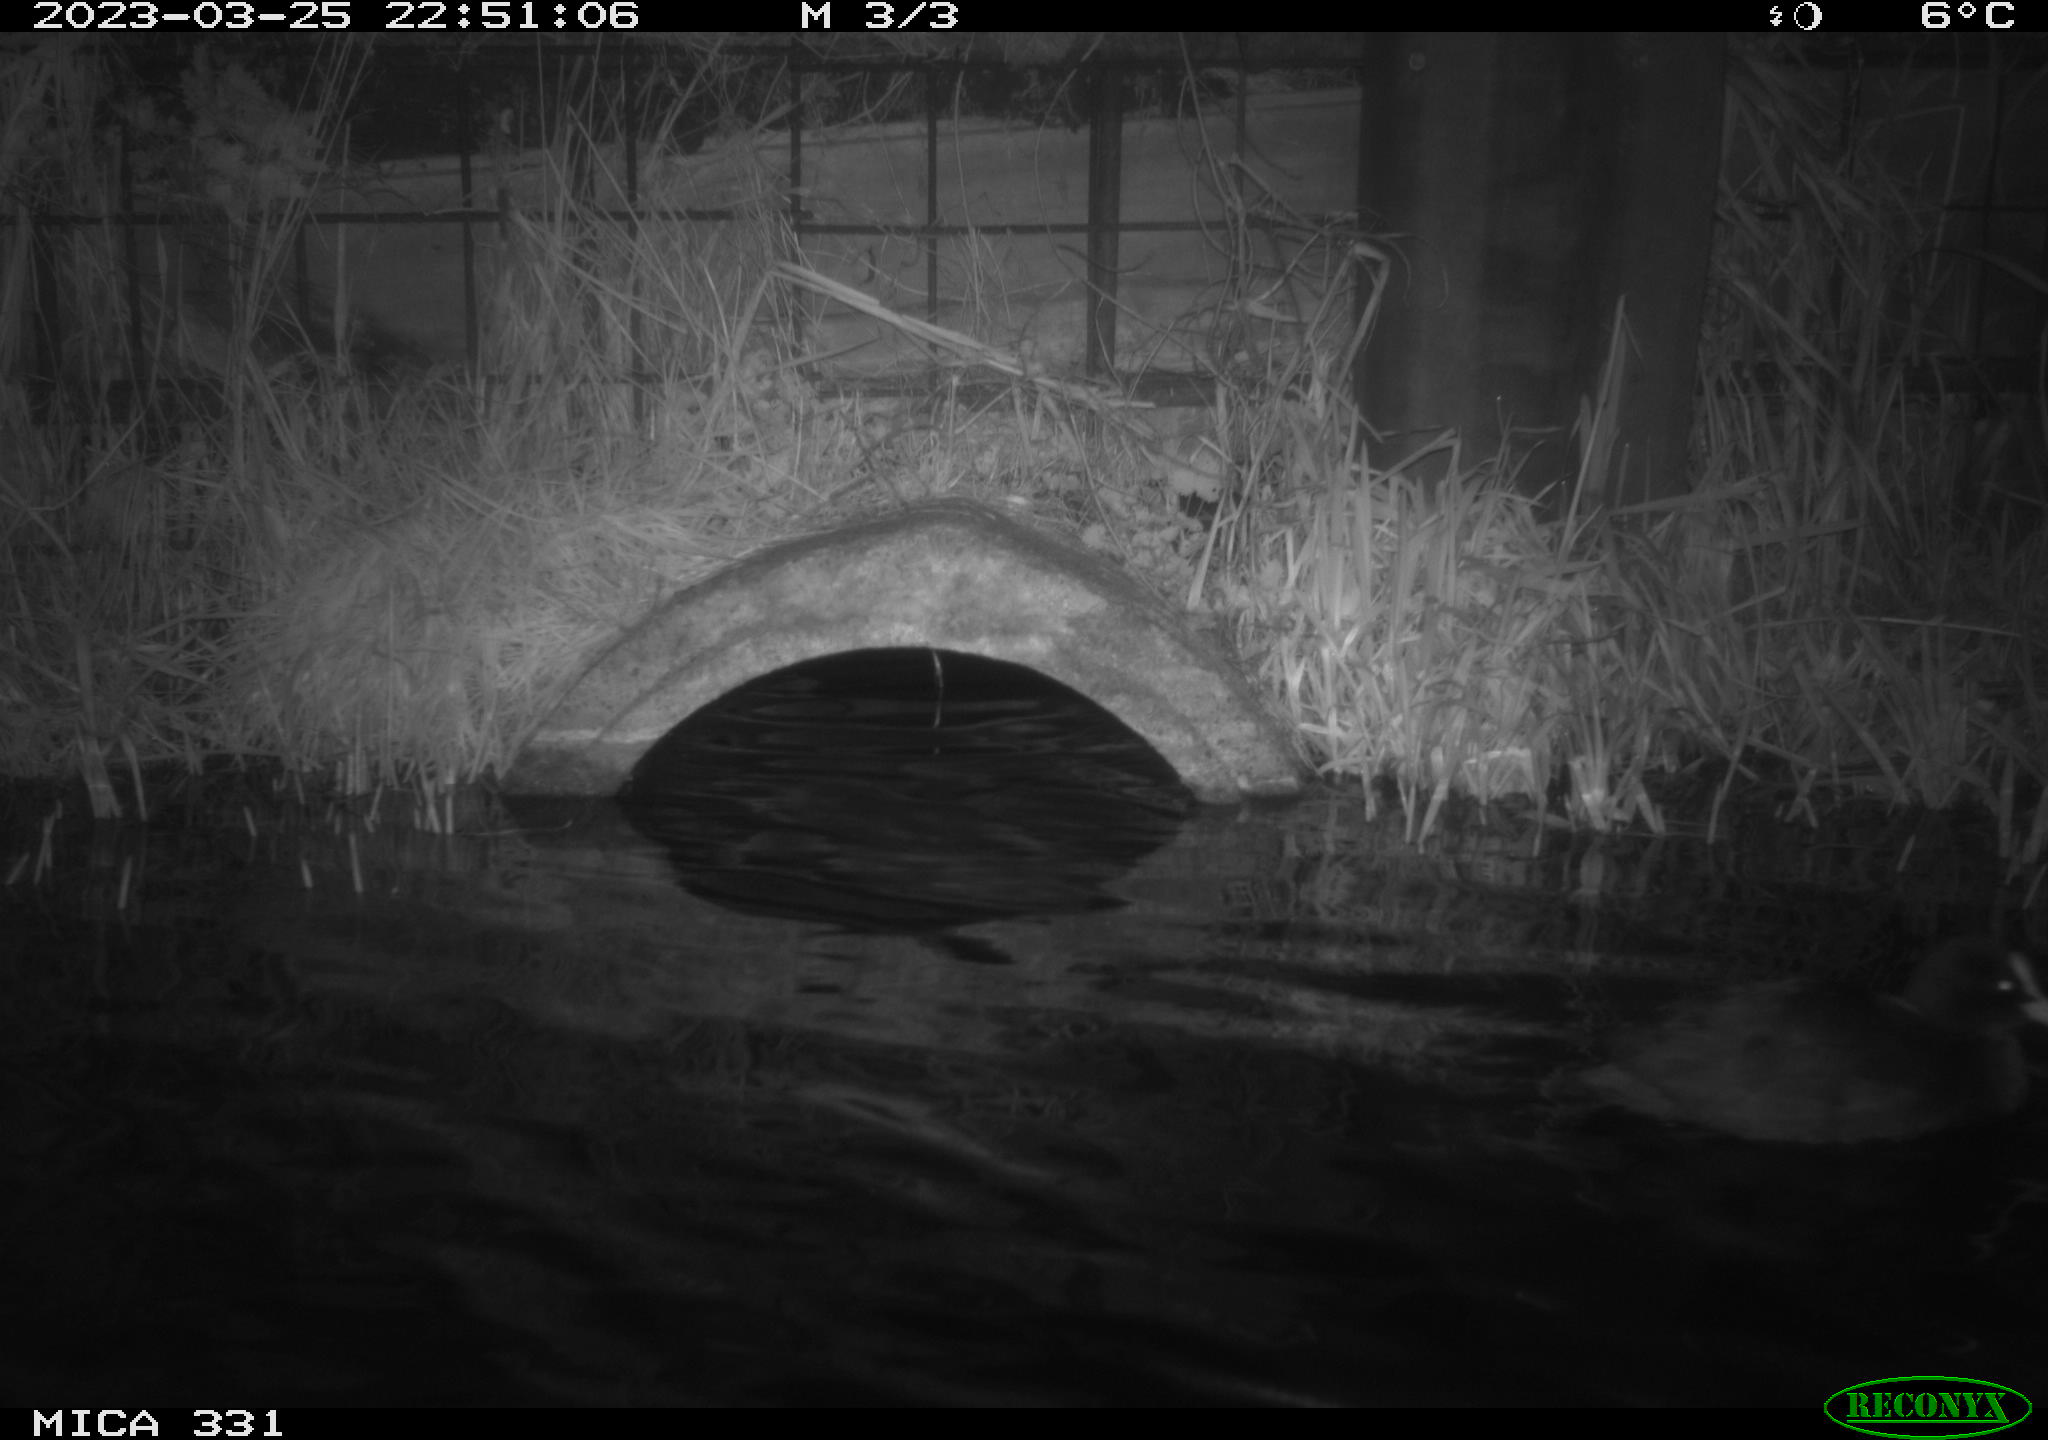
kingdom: Animalia
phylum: Chordata
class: Aves
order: Anseriformes
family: Anatidae
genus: Anas
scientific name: Anas
